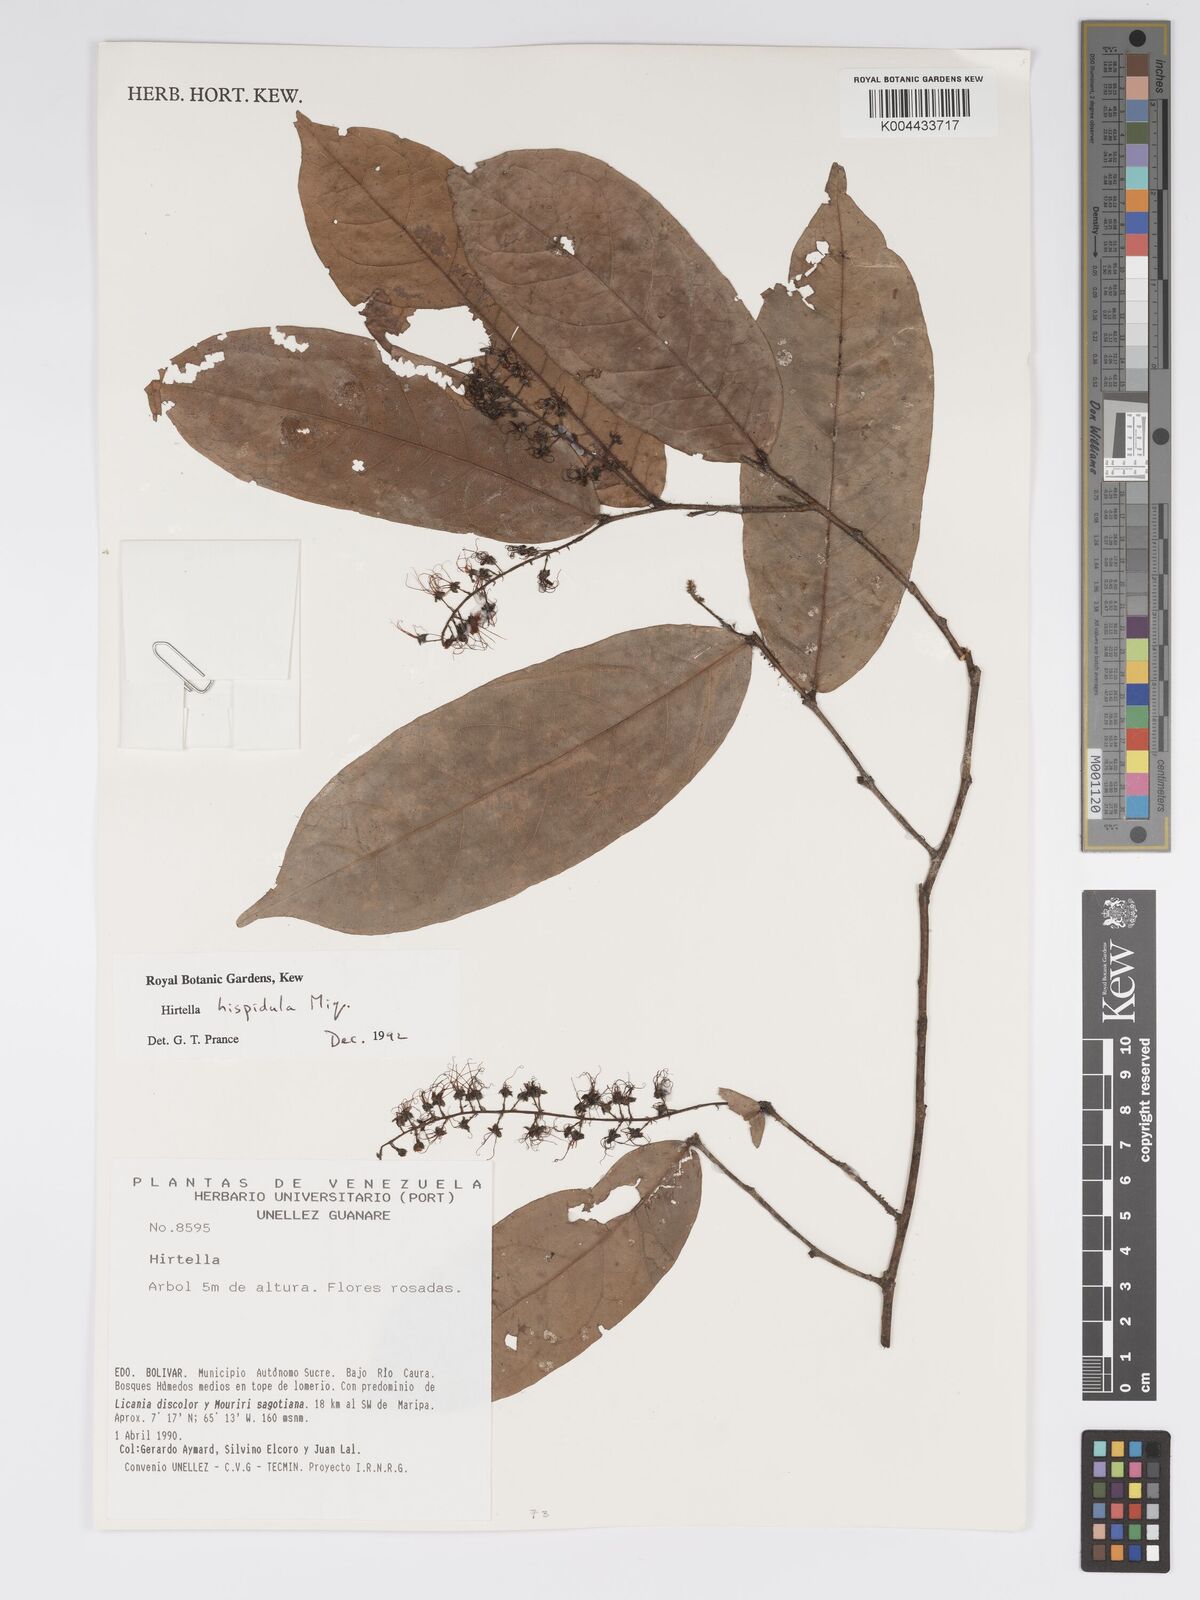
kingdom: Plantae
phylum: Tracheophyta
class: Magnoliopsida
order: Malpighiales
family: Chrysobalanaceae
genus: Hirtella
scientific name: Hirtella hispidula
